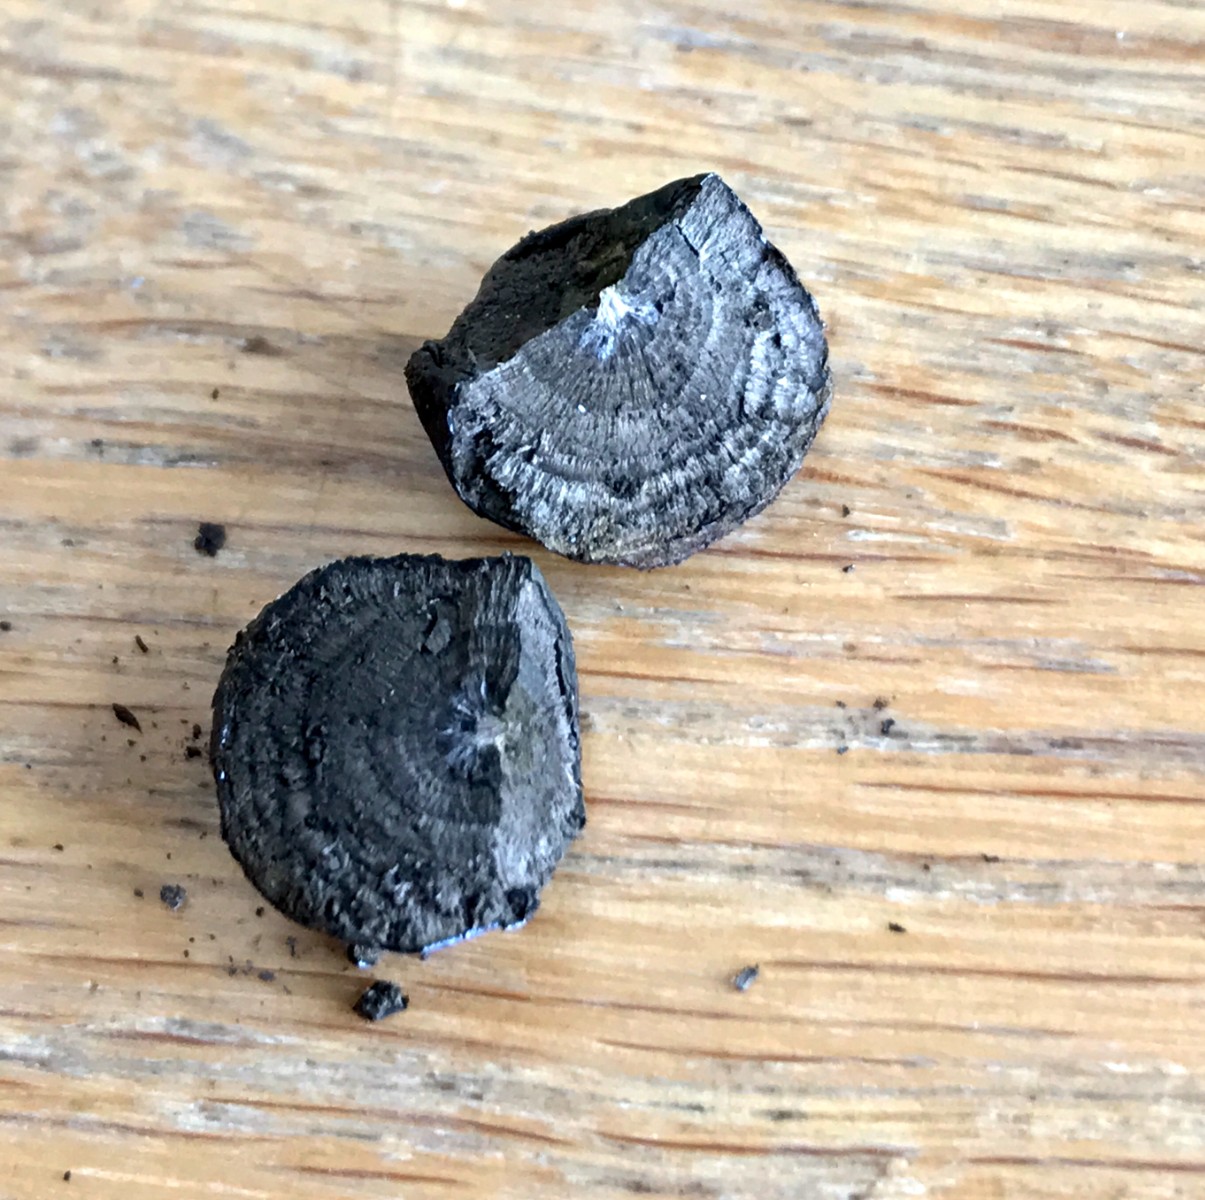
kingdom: Fungi
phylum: Ascomycota
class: Sordariomycetes
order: Xylariales
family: Hypoxylaceae
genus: Daldinia
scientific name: Daldinia concentrica
